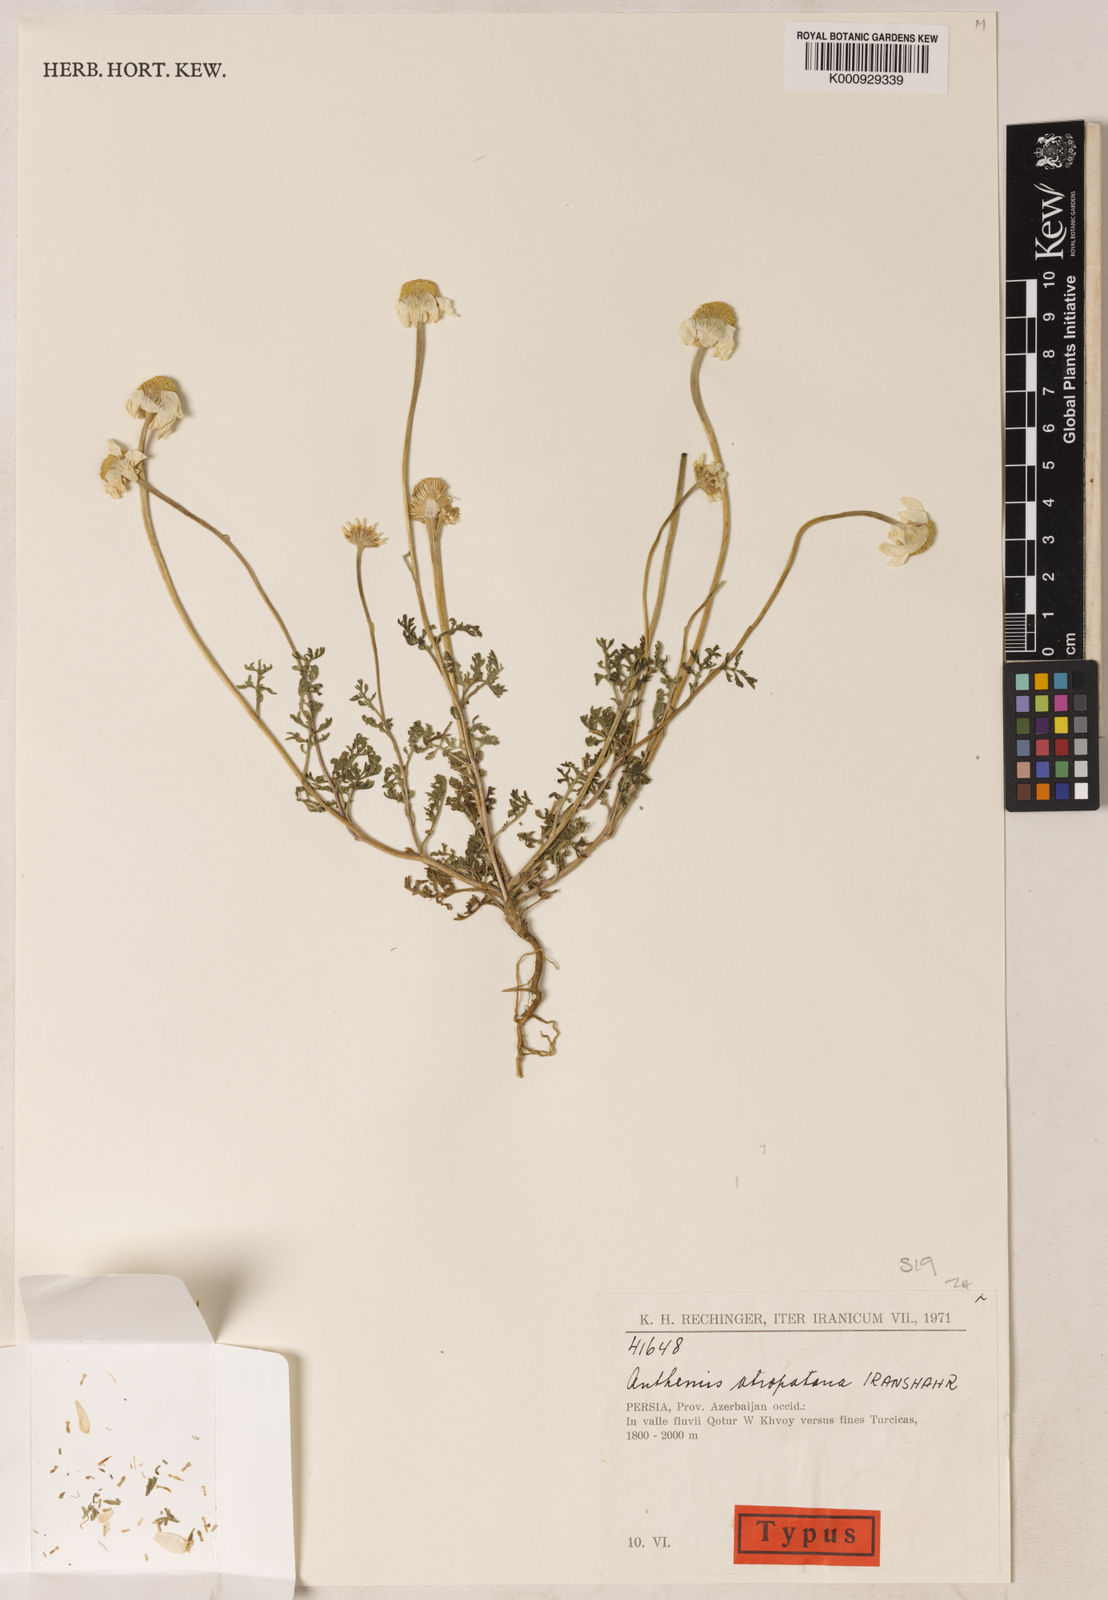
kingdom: Plantae
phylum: Tracheophyta
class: Magnoliopsida
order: Asterales
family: Asteraceae
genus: Anthemis
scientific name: Anthemis atropatana
